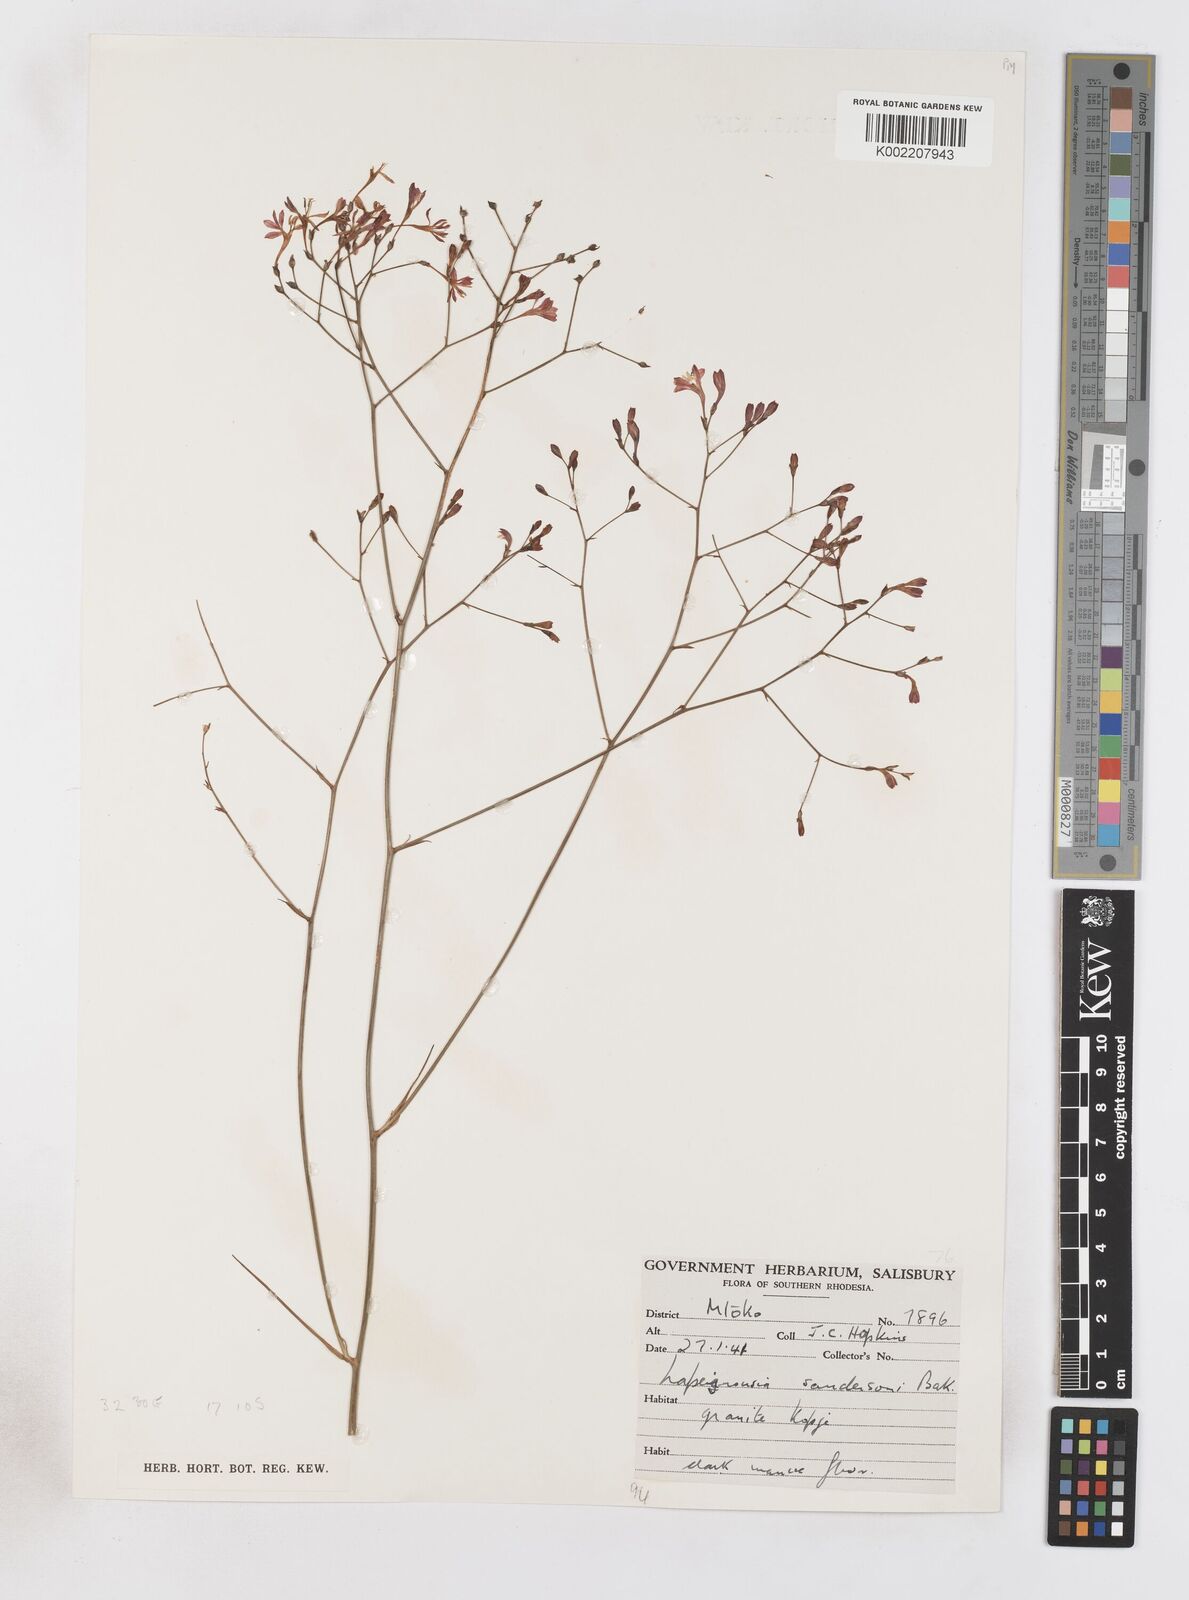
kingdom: Plantae
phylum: Tracheophyta
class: Liliopsida
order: Asparagales
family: Iridaceae
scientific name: Iridaceae
